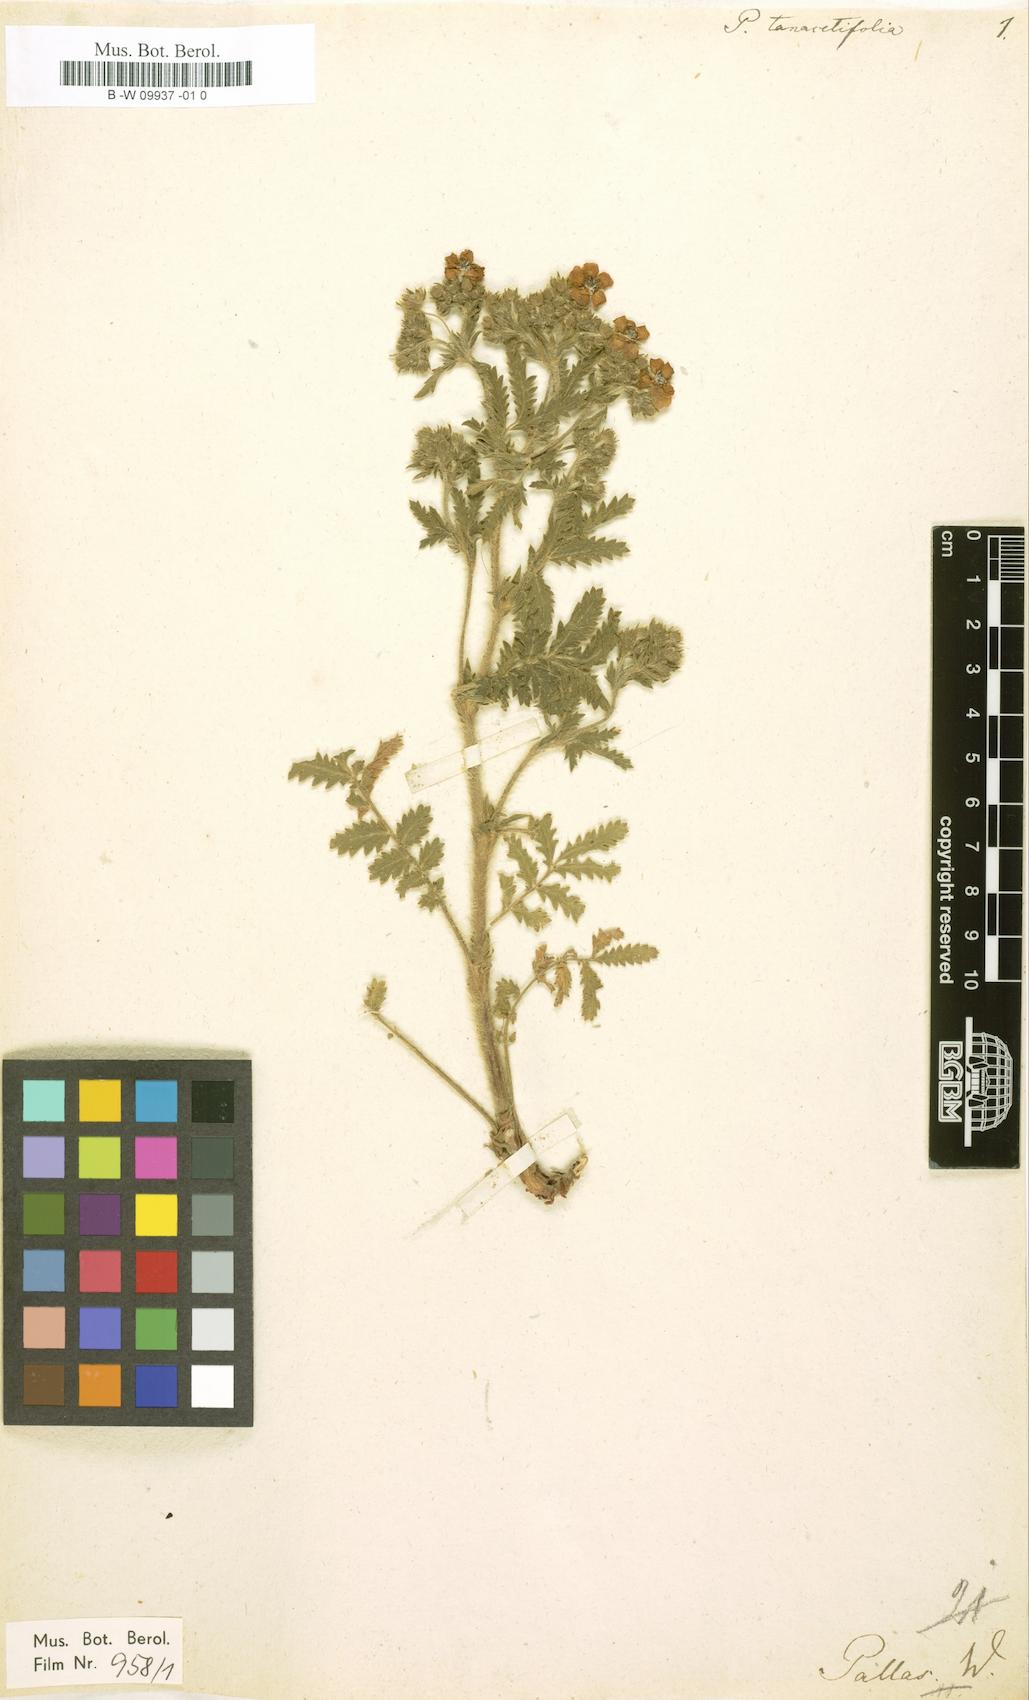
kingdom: Plantae
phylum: Tracheophyta
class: Magnoliopsida
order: Rosales
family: Rosaceae
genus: Potentilla
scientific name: Potentilla tanacetifolia
